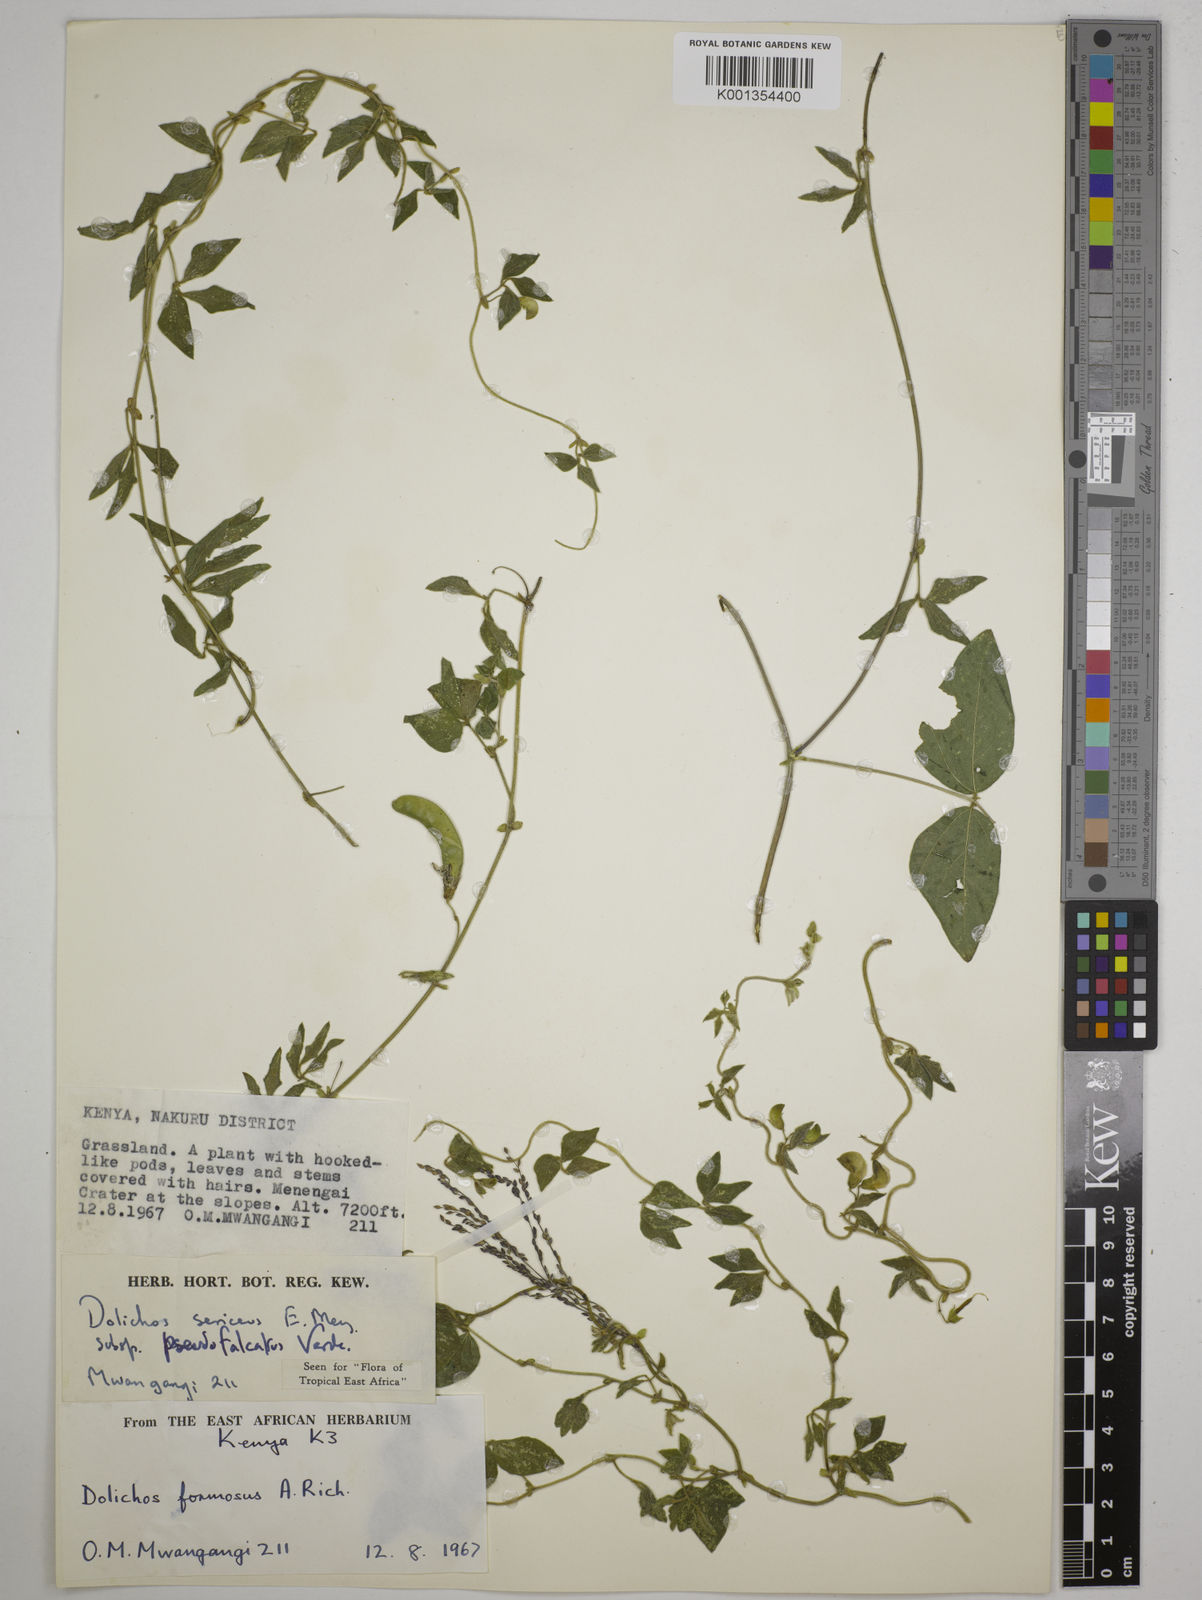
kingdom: Plantae
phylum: Tracheophyta
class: Magnoliopsida
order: Fabales
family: Fabaceae
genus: Dolichos
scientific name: Dolichos
